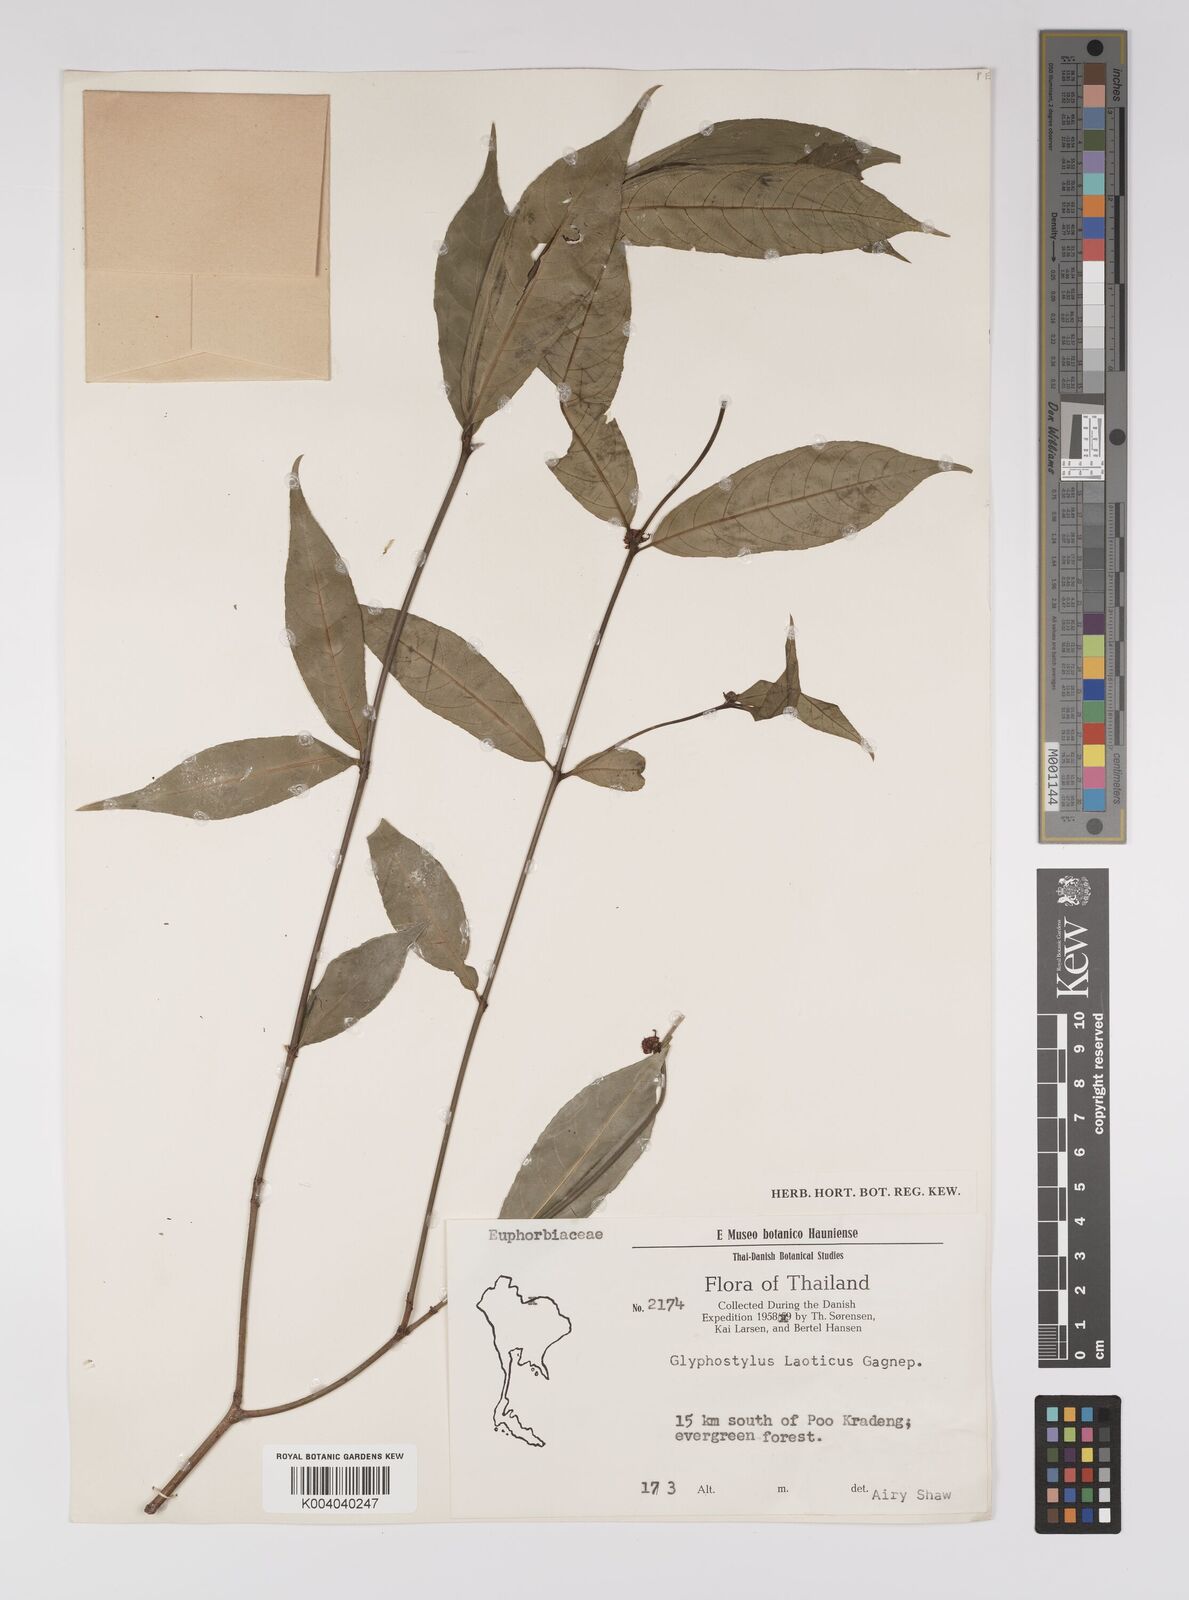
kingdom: Plantae
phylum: Tracheophyta
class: Magnoliopsida
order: Malpighiales
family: Euphorbiaceae
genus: Excoecaria
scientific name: Excoecaria laotica
